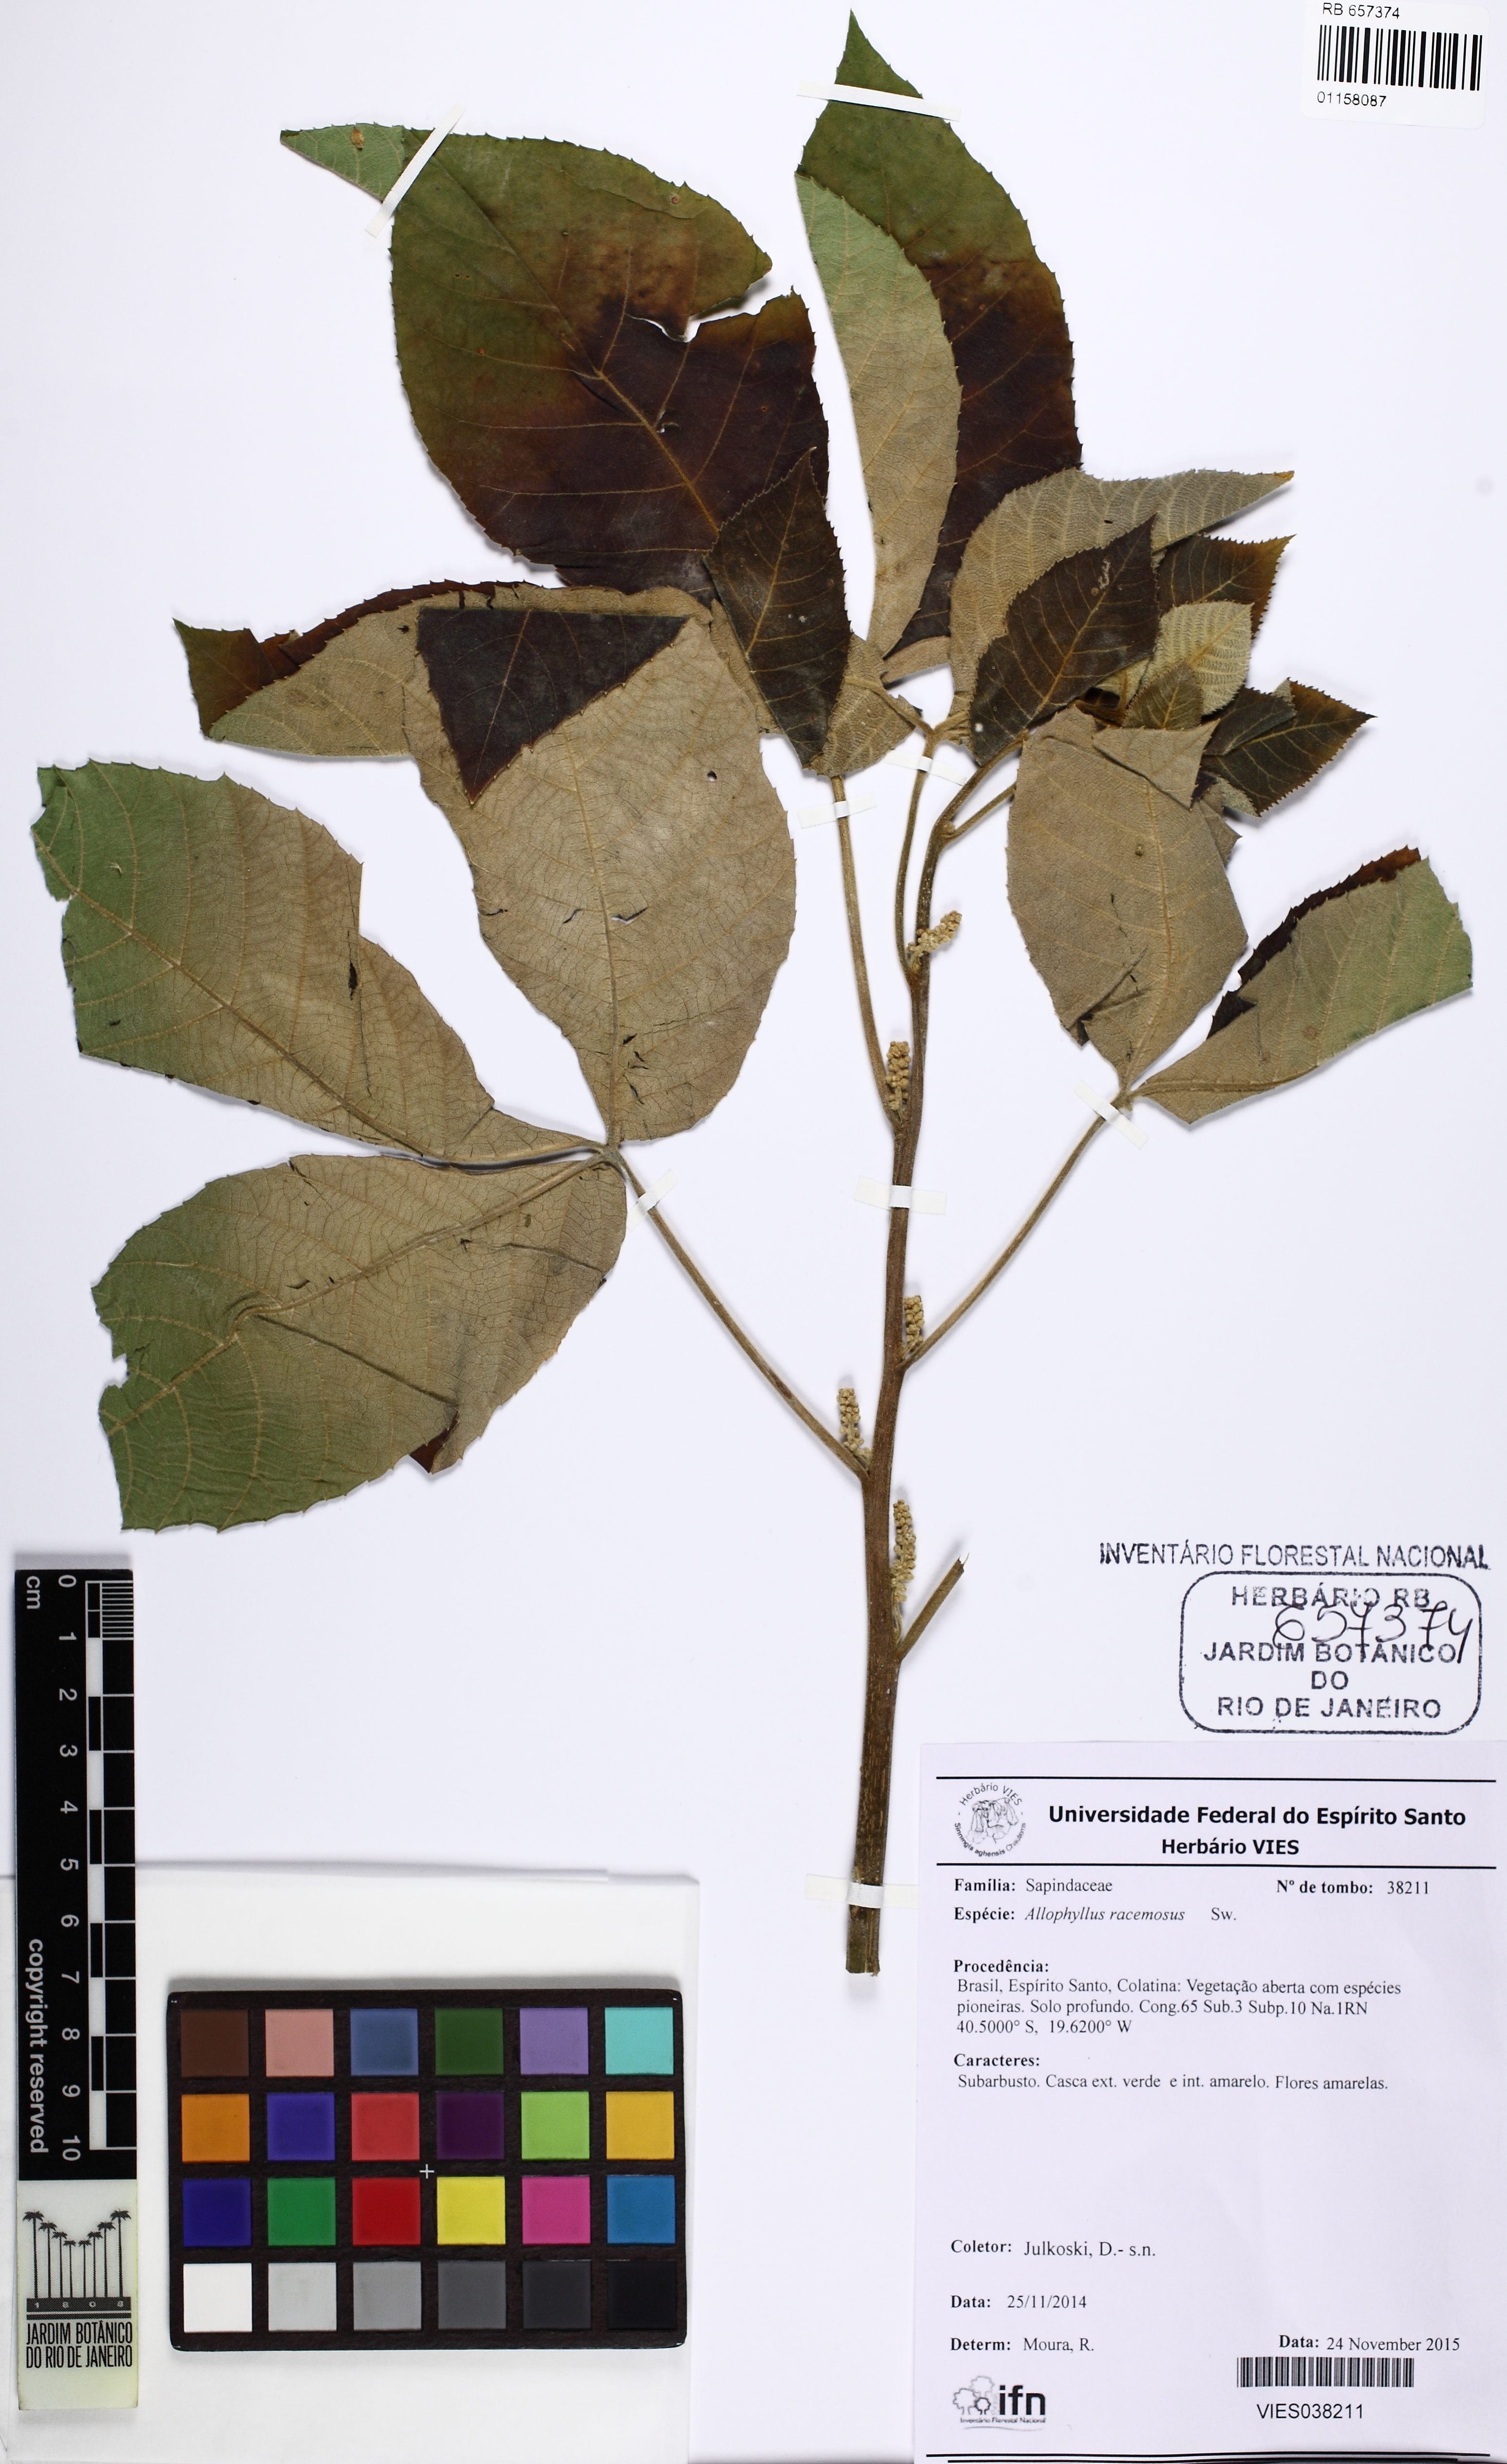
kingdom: Plantae
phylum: Tracheophyta
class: Magnoliopsida
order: Sapindales
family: Sapindaceae
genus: Allophylus
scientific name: Allophylus racemosus
